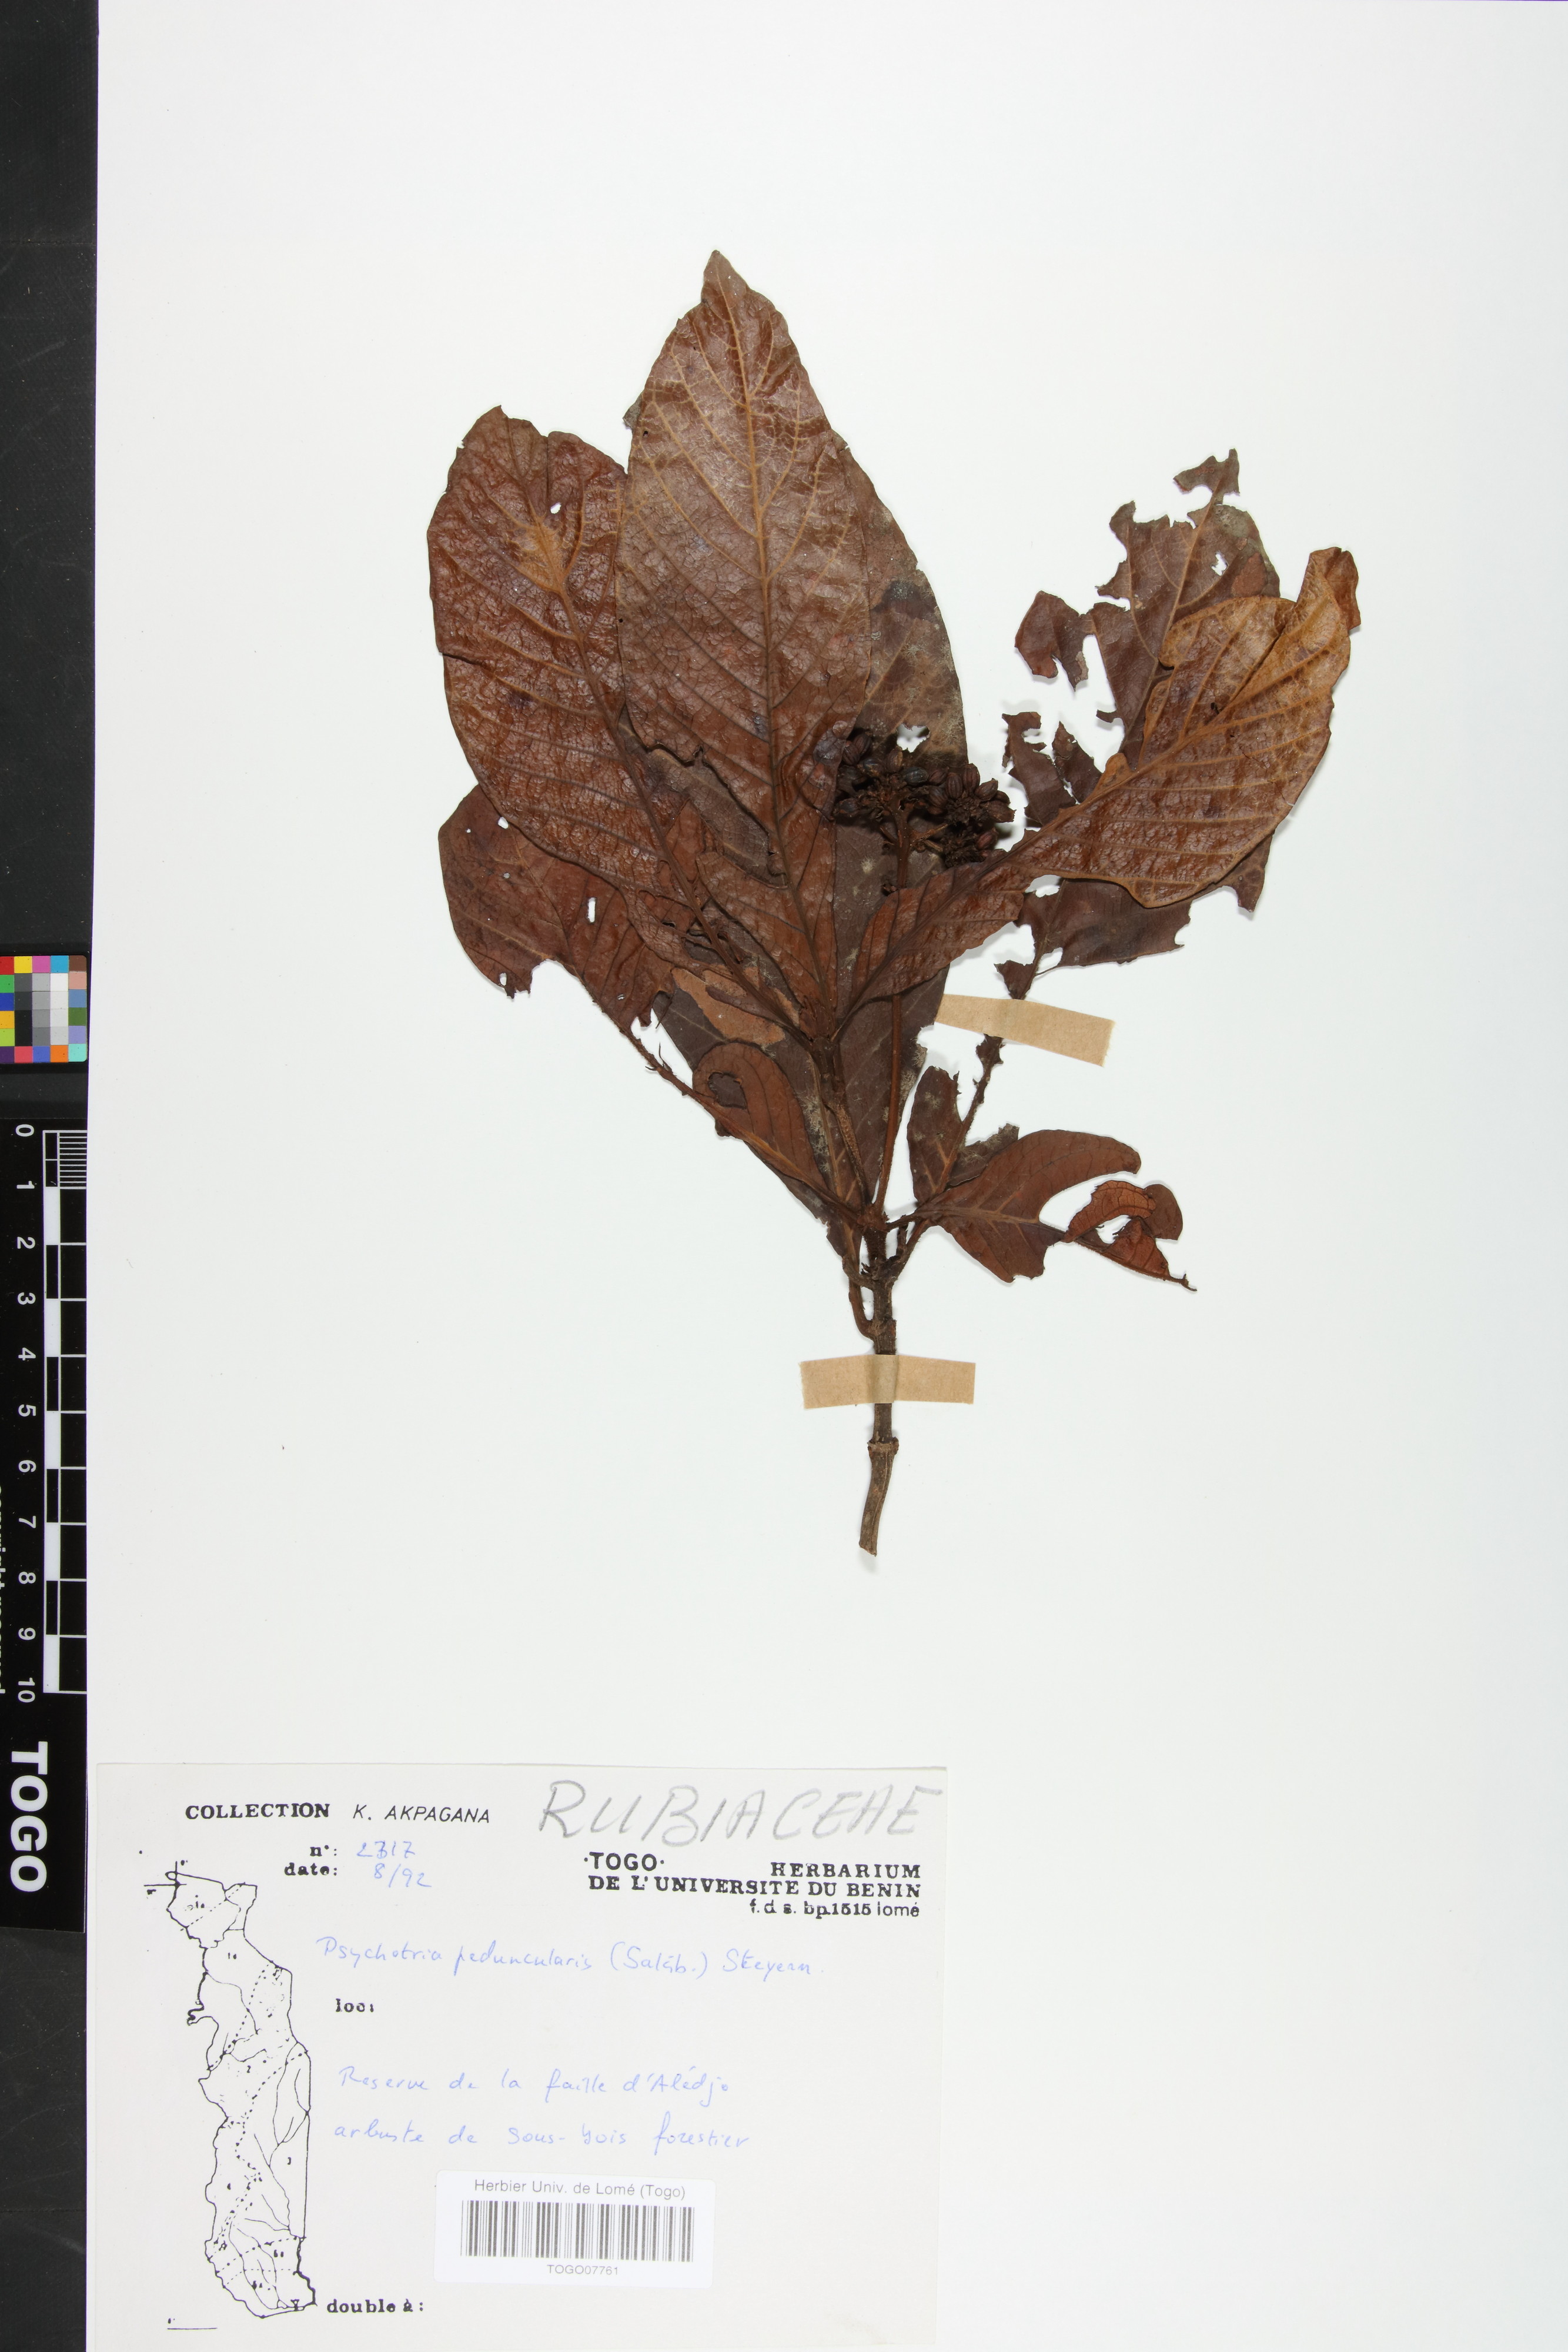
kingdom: Plantae
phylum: Tracheophyta
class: Magnoliopsida
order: Gentianales
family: Rubiaceae
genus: Psychotria
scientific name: Psychotria peduncularis
